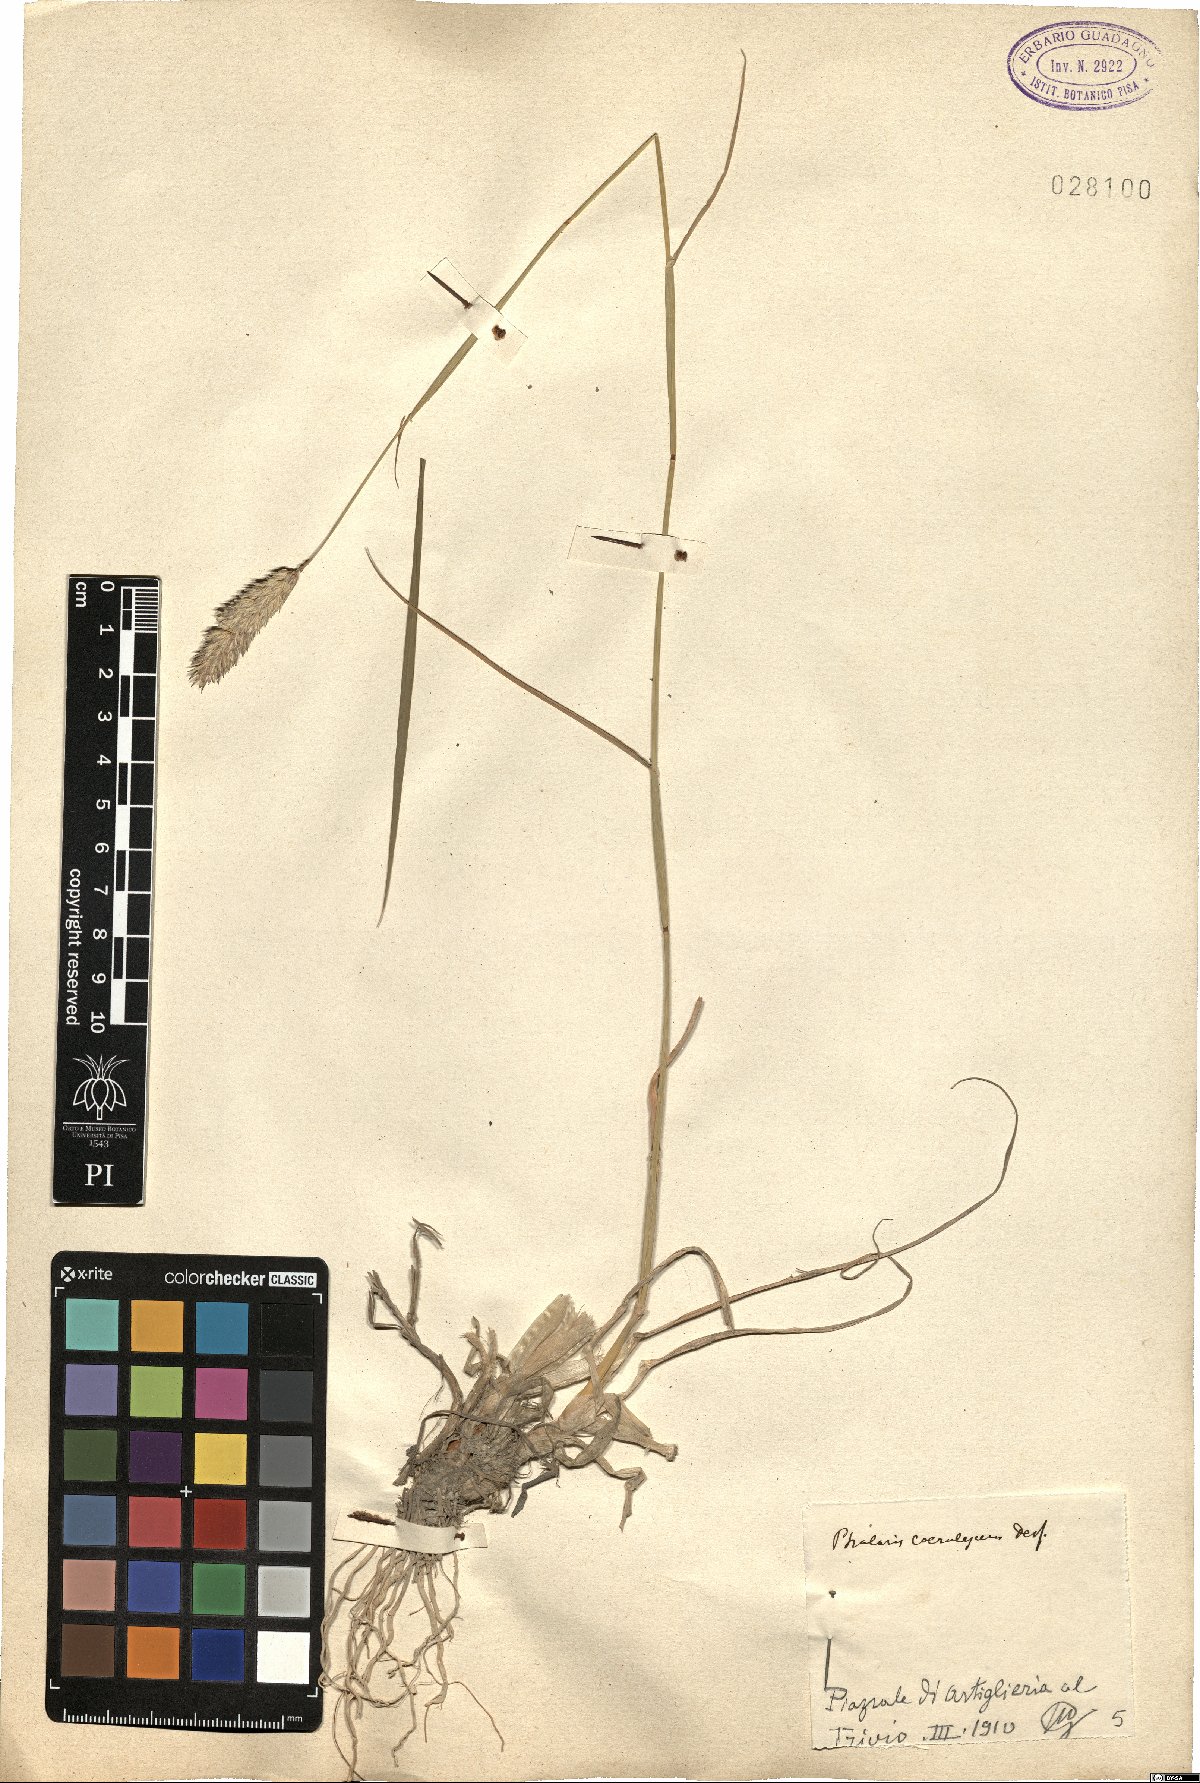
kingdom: Plantae
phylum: Tracheophyta
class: Liliopsida
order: Poales
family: Poaceae
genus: Phalaris
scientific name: Phalaris coerulescens
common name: Sunolgrass
